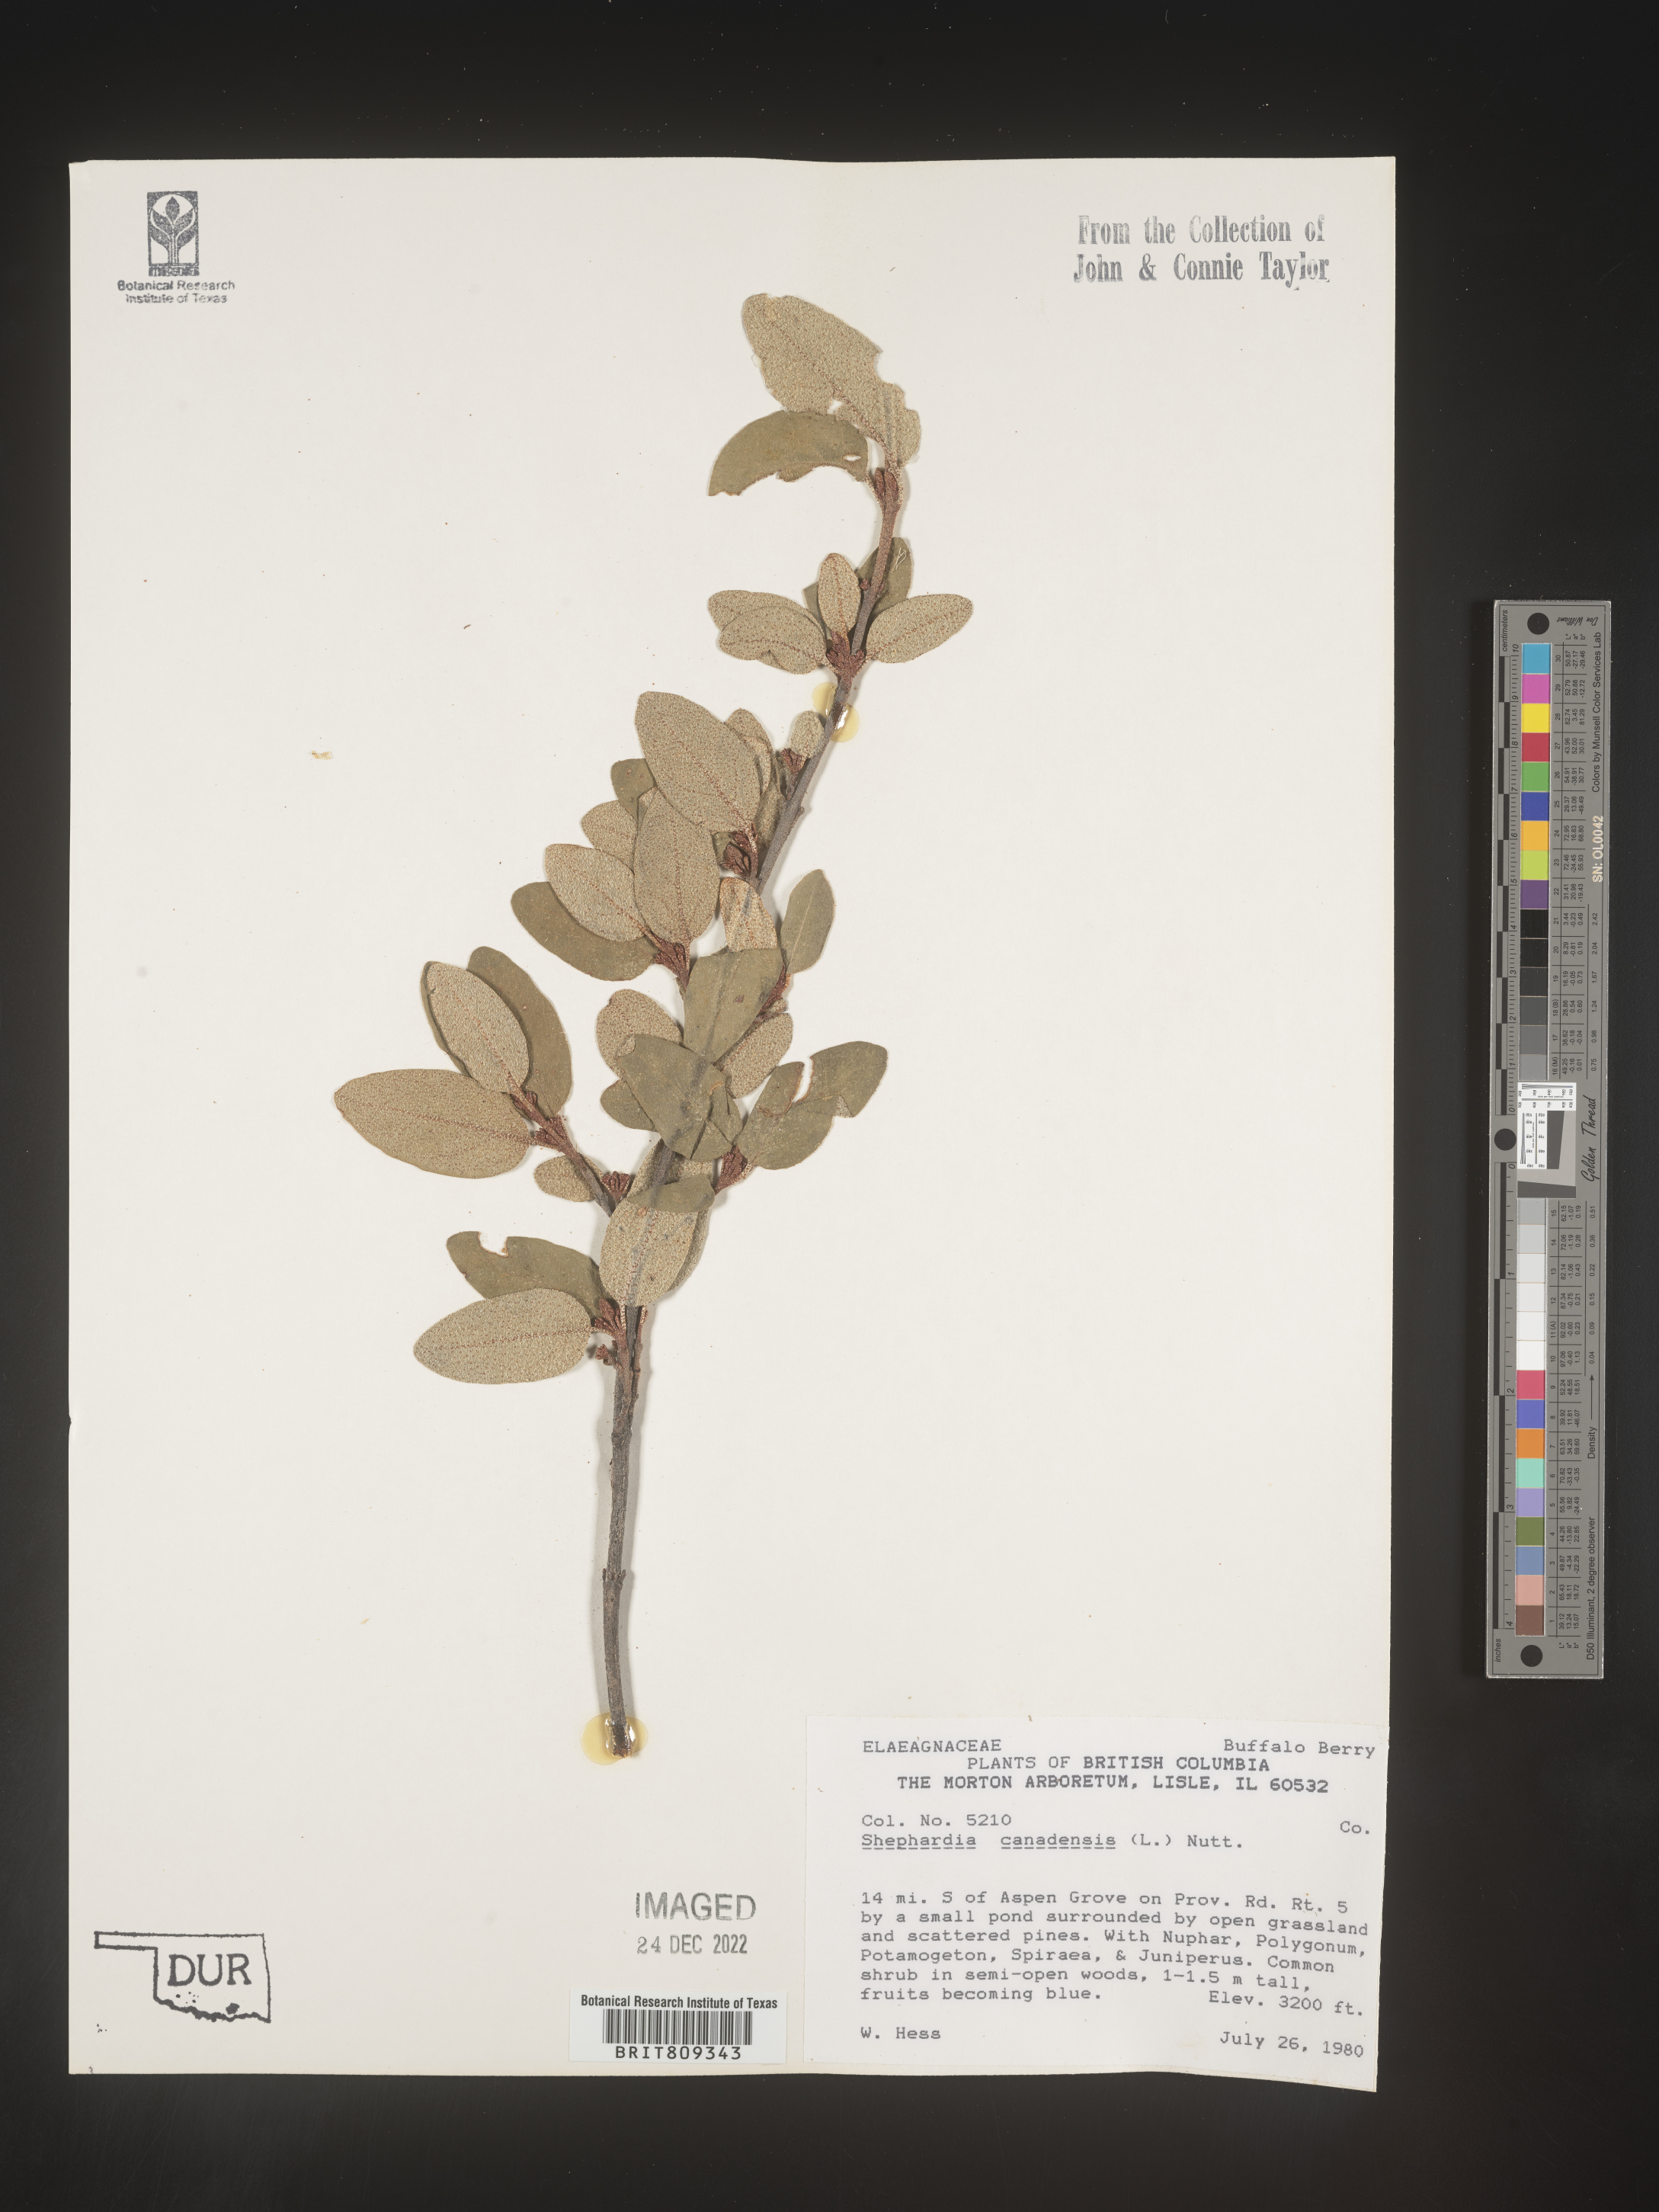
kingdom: Plantae
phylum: Tracheophyta
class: Magnoliopsida
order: Rosales
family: Elaeagnaceae
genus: Shepherdia
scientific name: Shepherdia canadensis
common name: Soapberry
